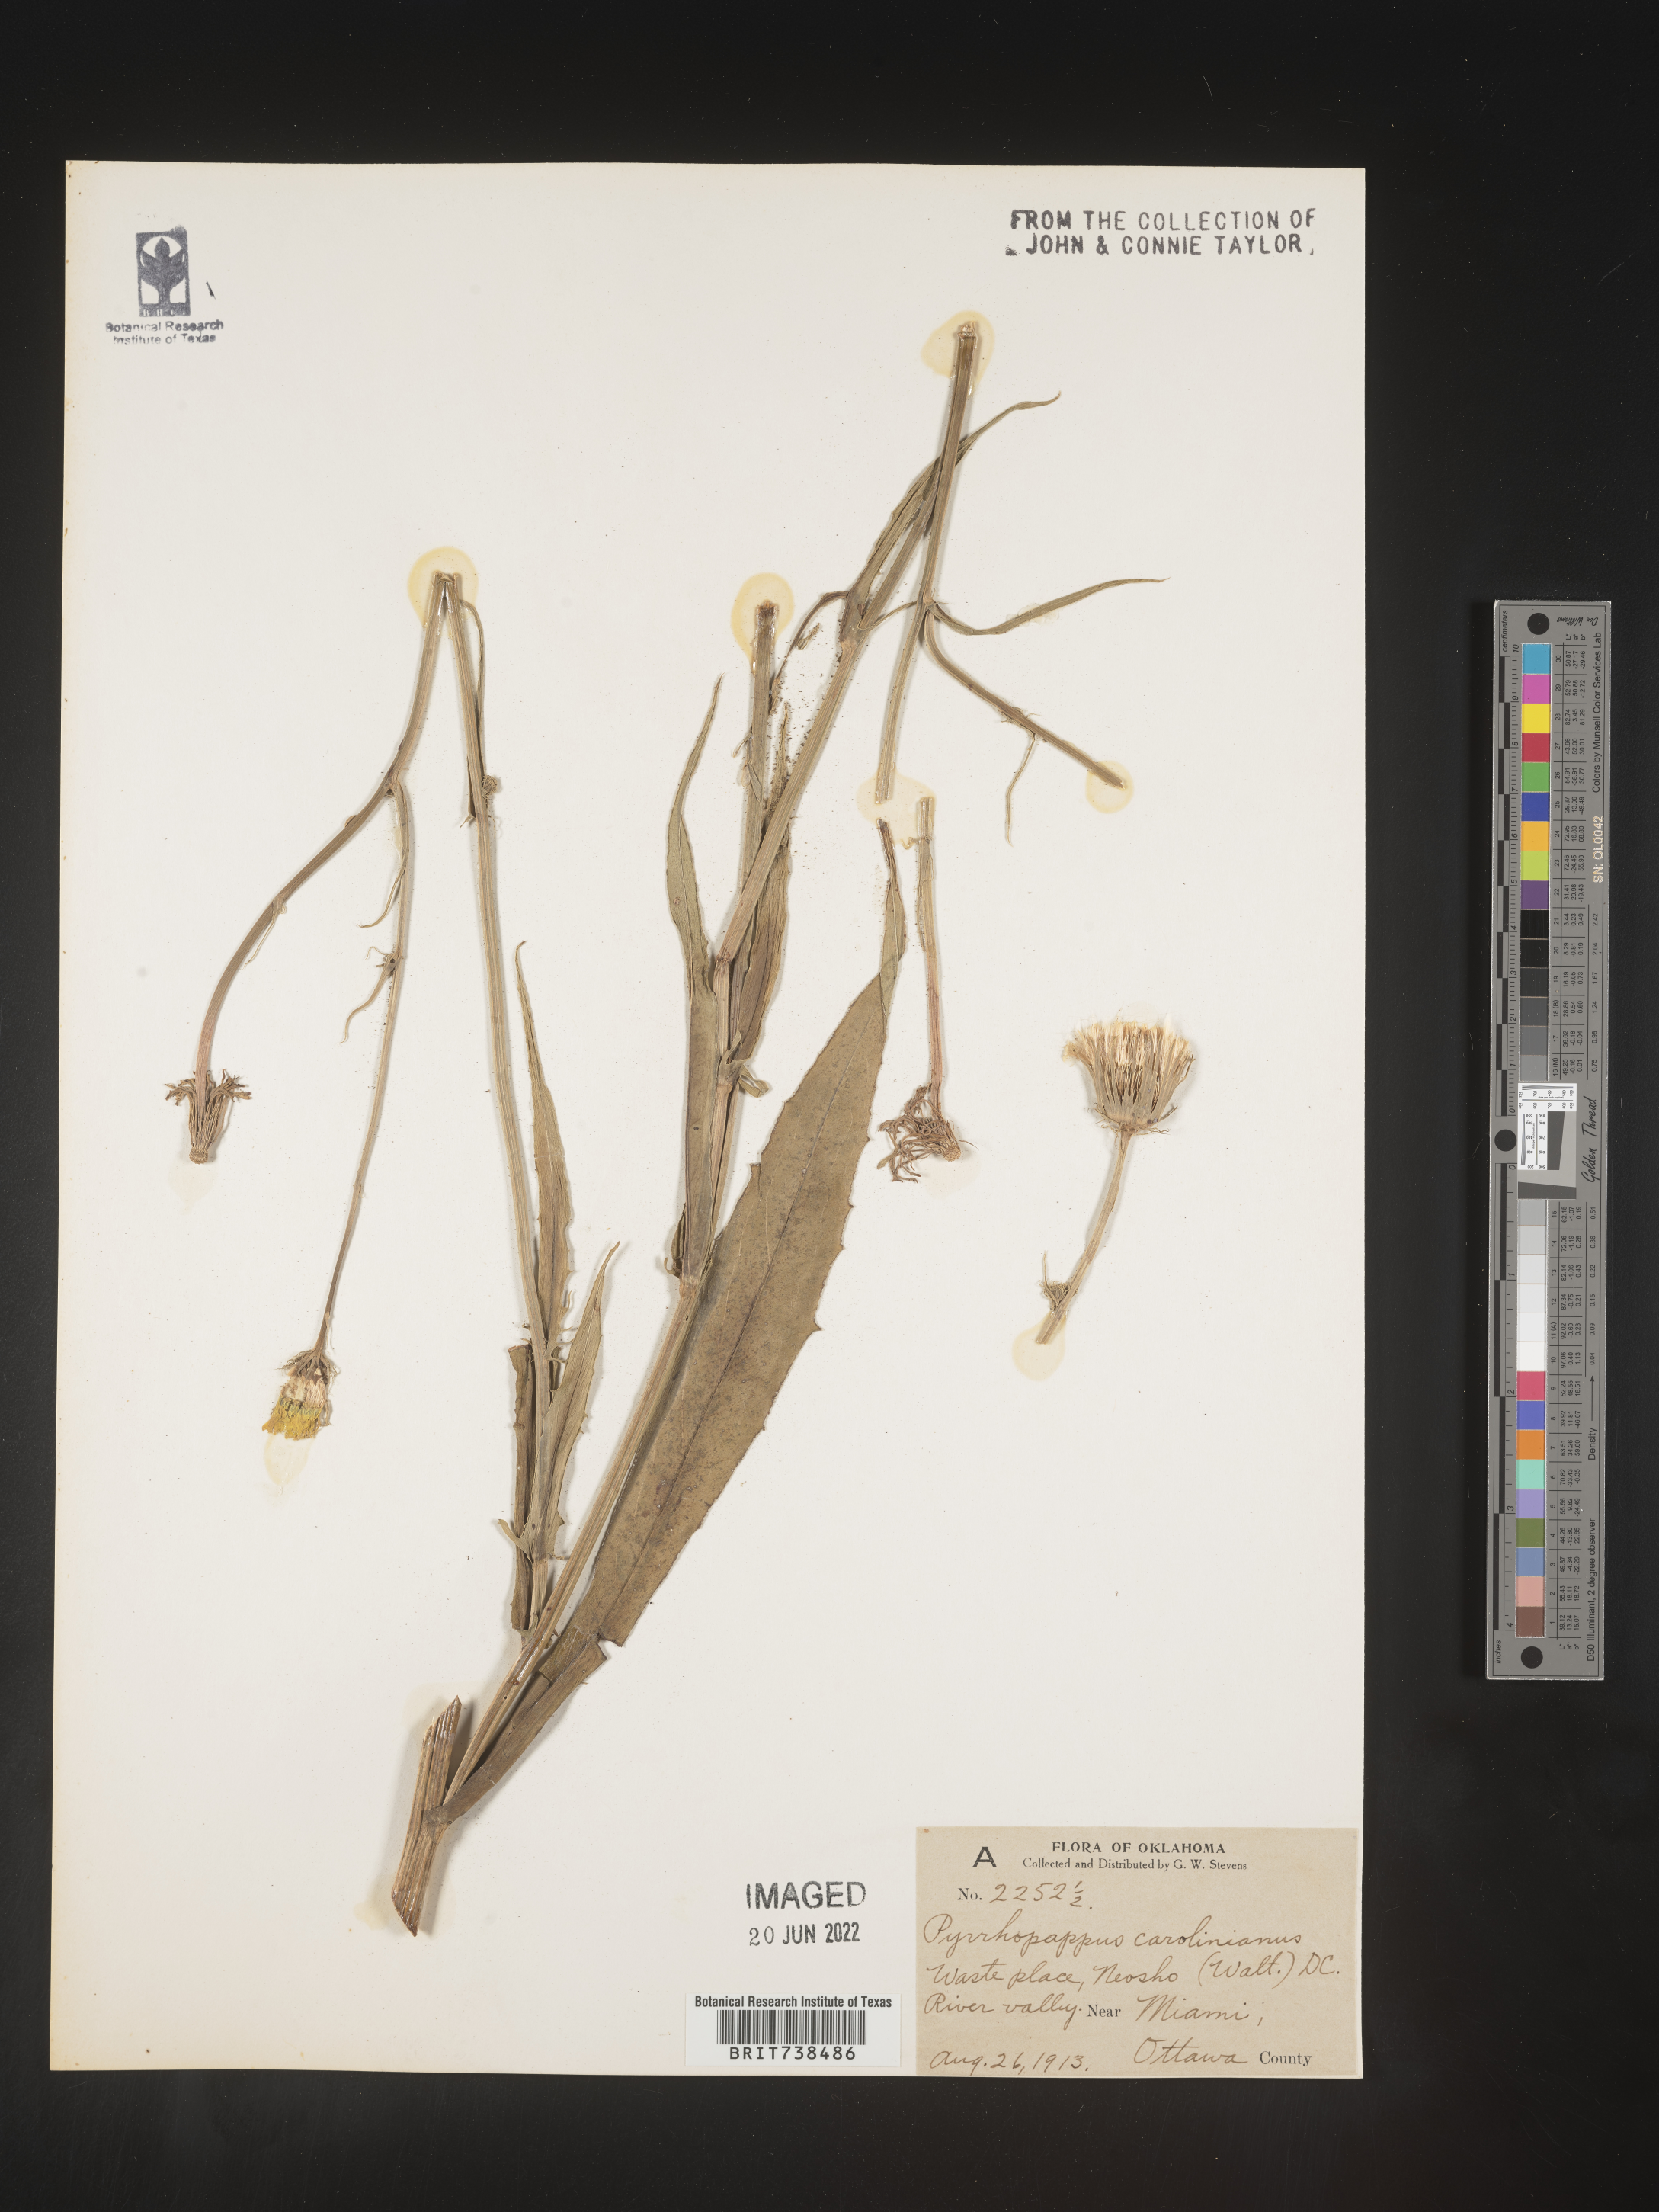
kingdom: Plantae
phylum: Tracheophyta
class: Magnoliopsida
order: Asterales
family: Asteraceae
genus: Pyrrhopappus
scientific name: Pyrrhopappus carolinianus
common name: Carolina desert-chicory
